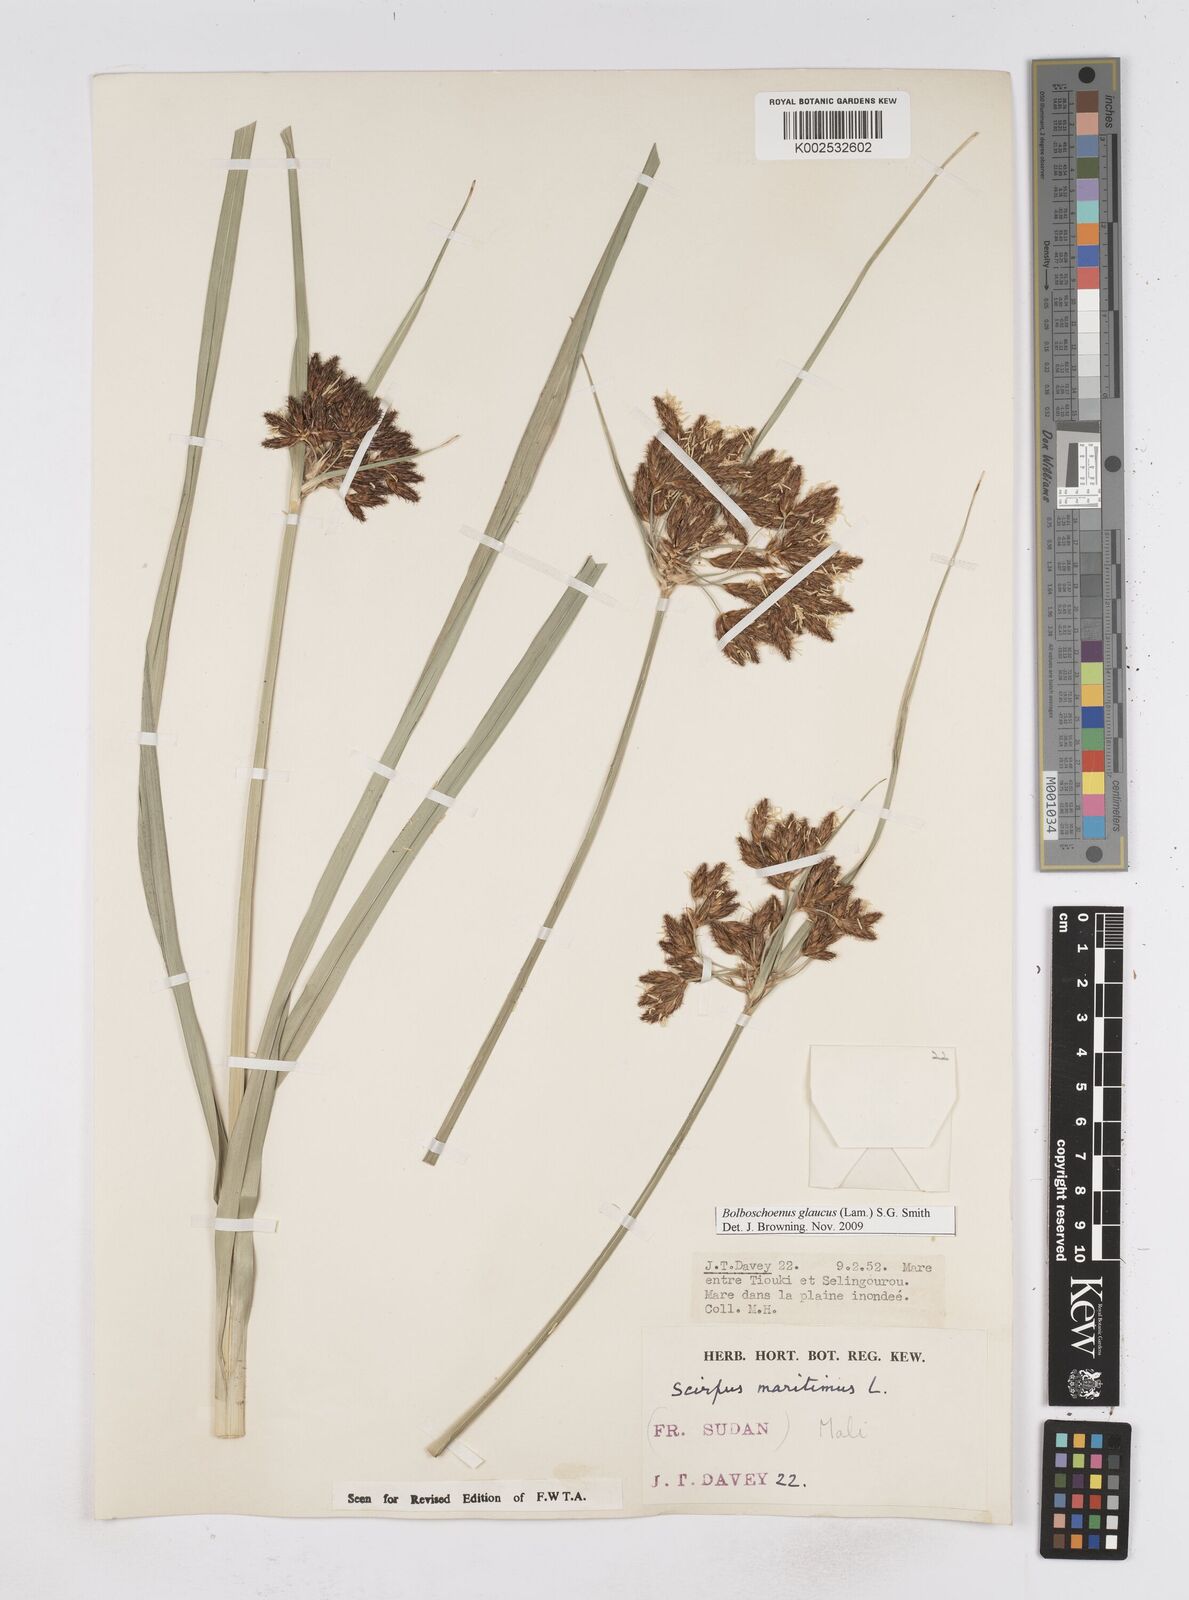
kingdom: Plantae
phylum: Tracheophyta
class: Liliopsida
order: Poales
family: Cyperaceae
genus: Bolboschoenus
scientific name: Bolboschoenus glaucus
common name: Tuberous bulrush
